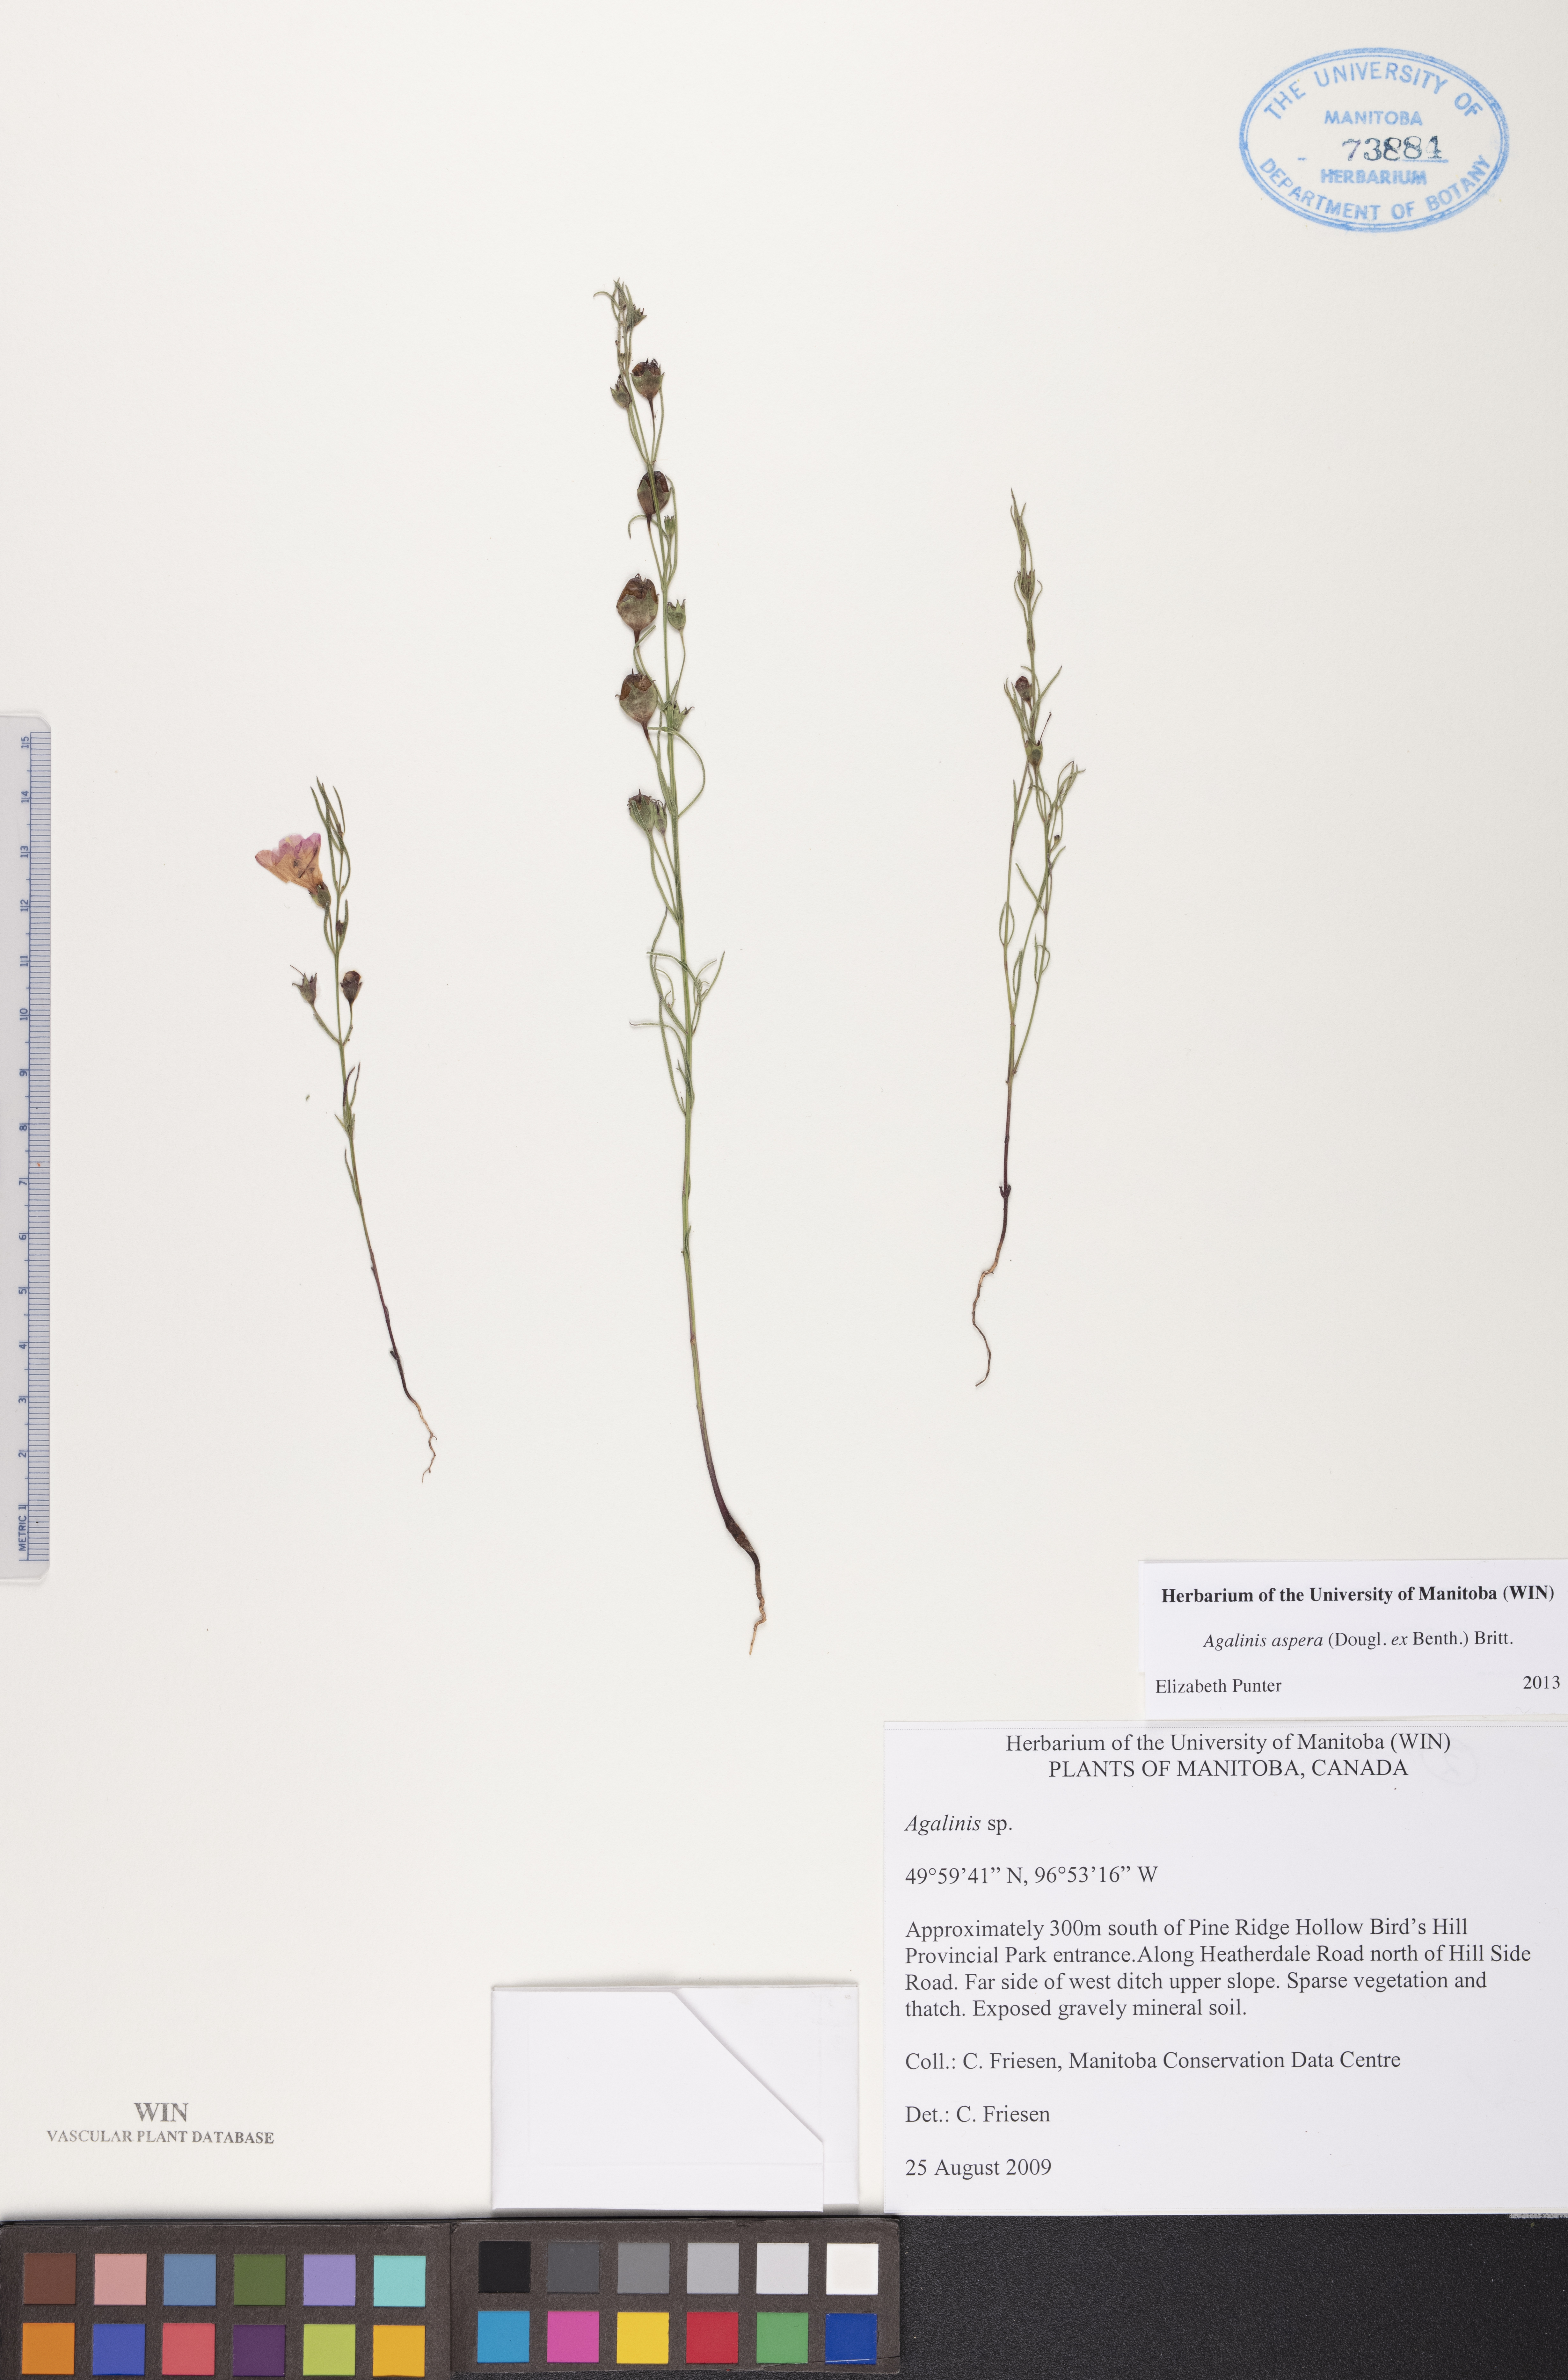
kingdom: Plantae
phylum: Tracheophyta
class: Magnoliopsida
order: Lamiales
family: Orobanchaceae
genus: Agalinis
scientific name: Agalinis aspera
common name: Rough agalinis
